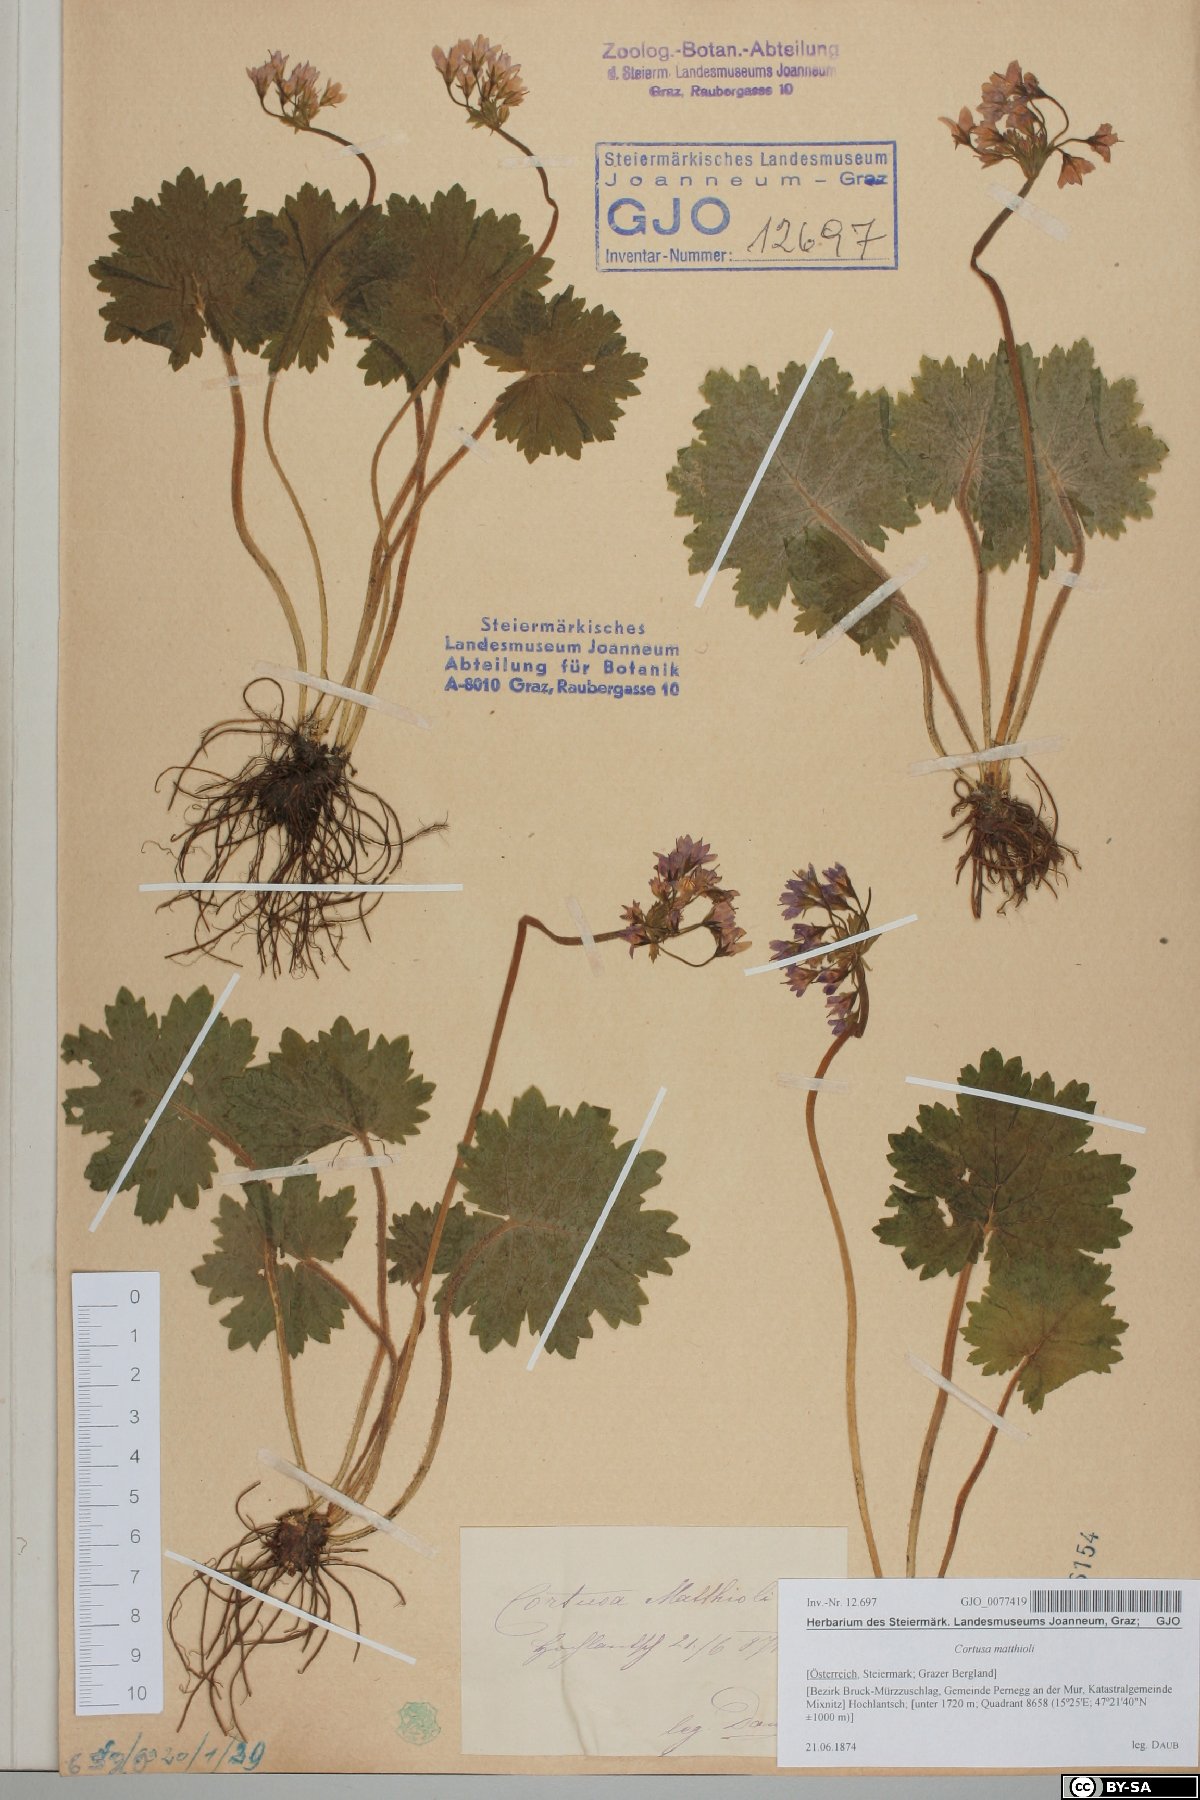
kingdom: Plantae
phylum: Tracheophyta
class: Magnoliopsida
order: Ericales
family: Primulaceae
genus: Primula
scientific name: Primula matthioli
